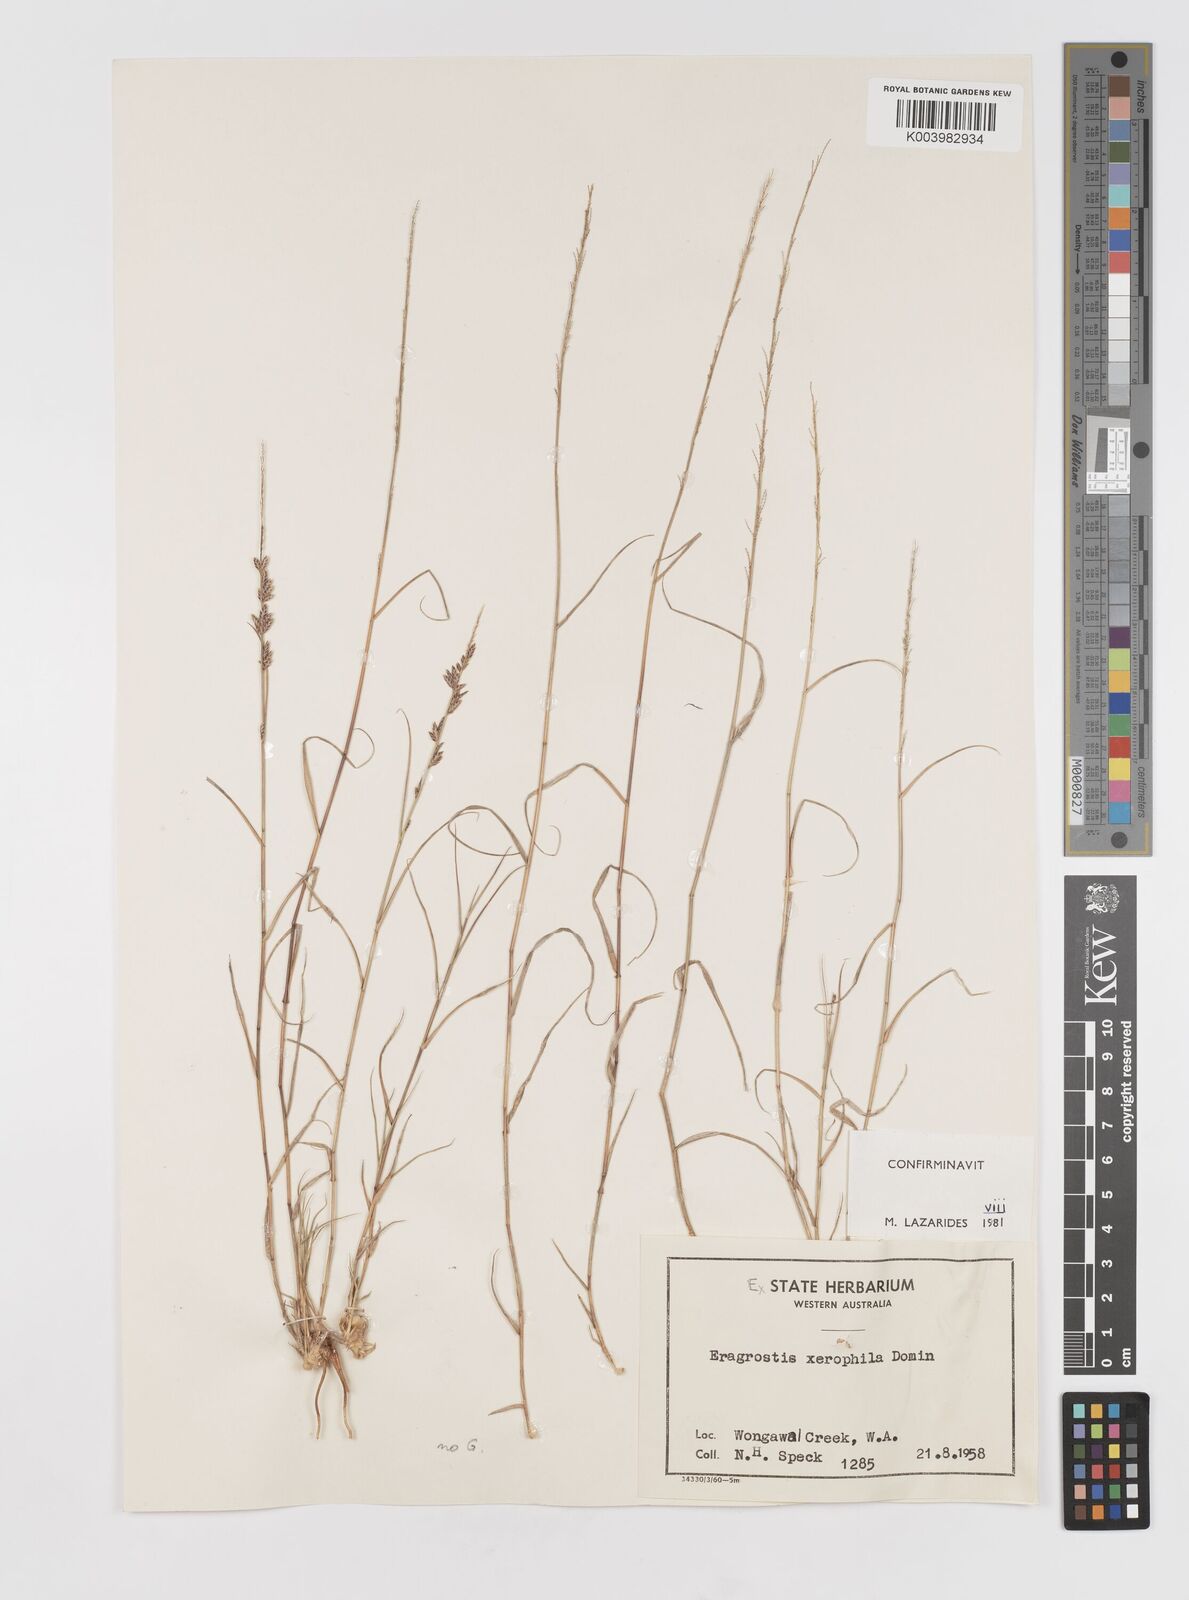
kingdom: Plantae
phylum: Tracheophyta
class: Liliopsida
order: Poales
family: Poaceae
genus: Eragrostis
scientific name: Eragrostis xerophila
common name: Wire wandarrie grass
